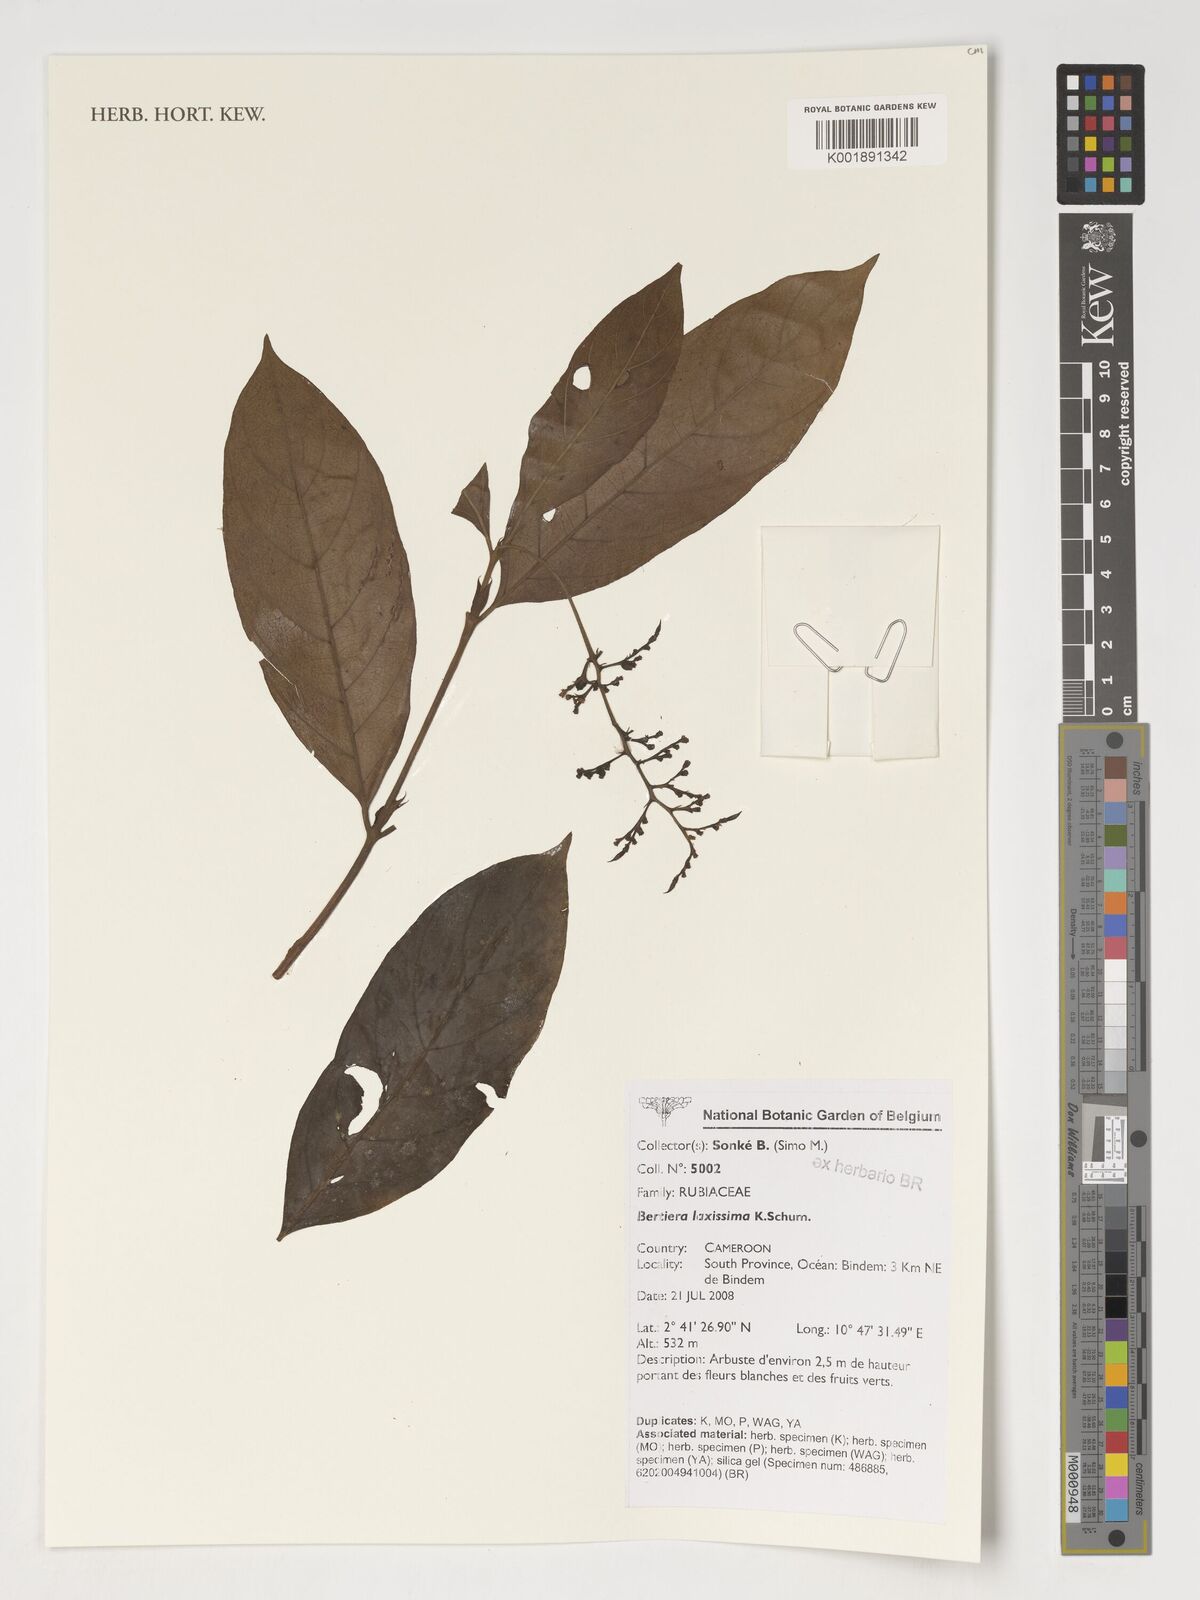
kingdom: Plantae
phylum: Tracheophyta
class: Magnoliopsida
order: Gentianales
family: Rubiaceae
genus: Bertiera
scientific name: Bertiera laxissima
